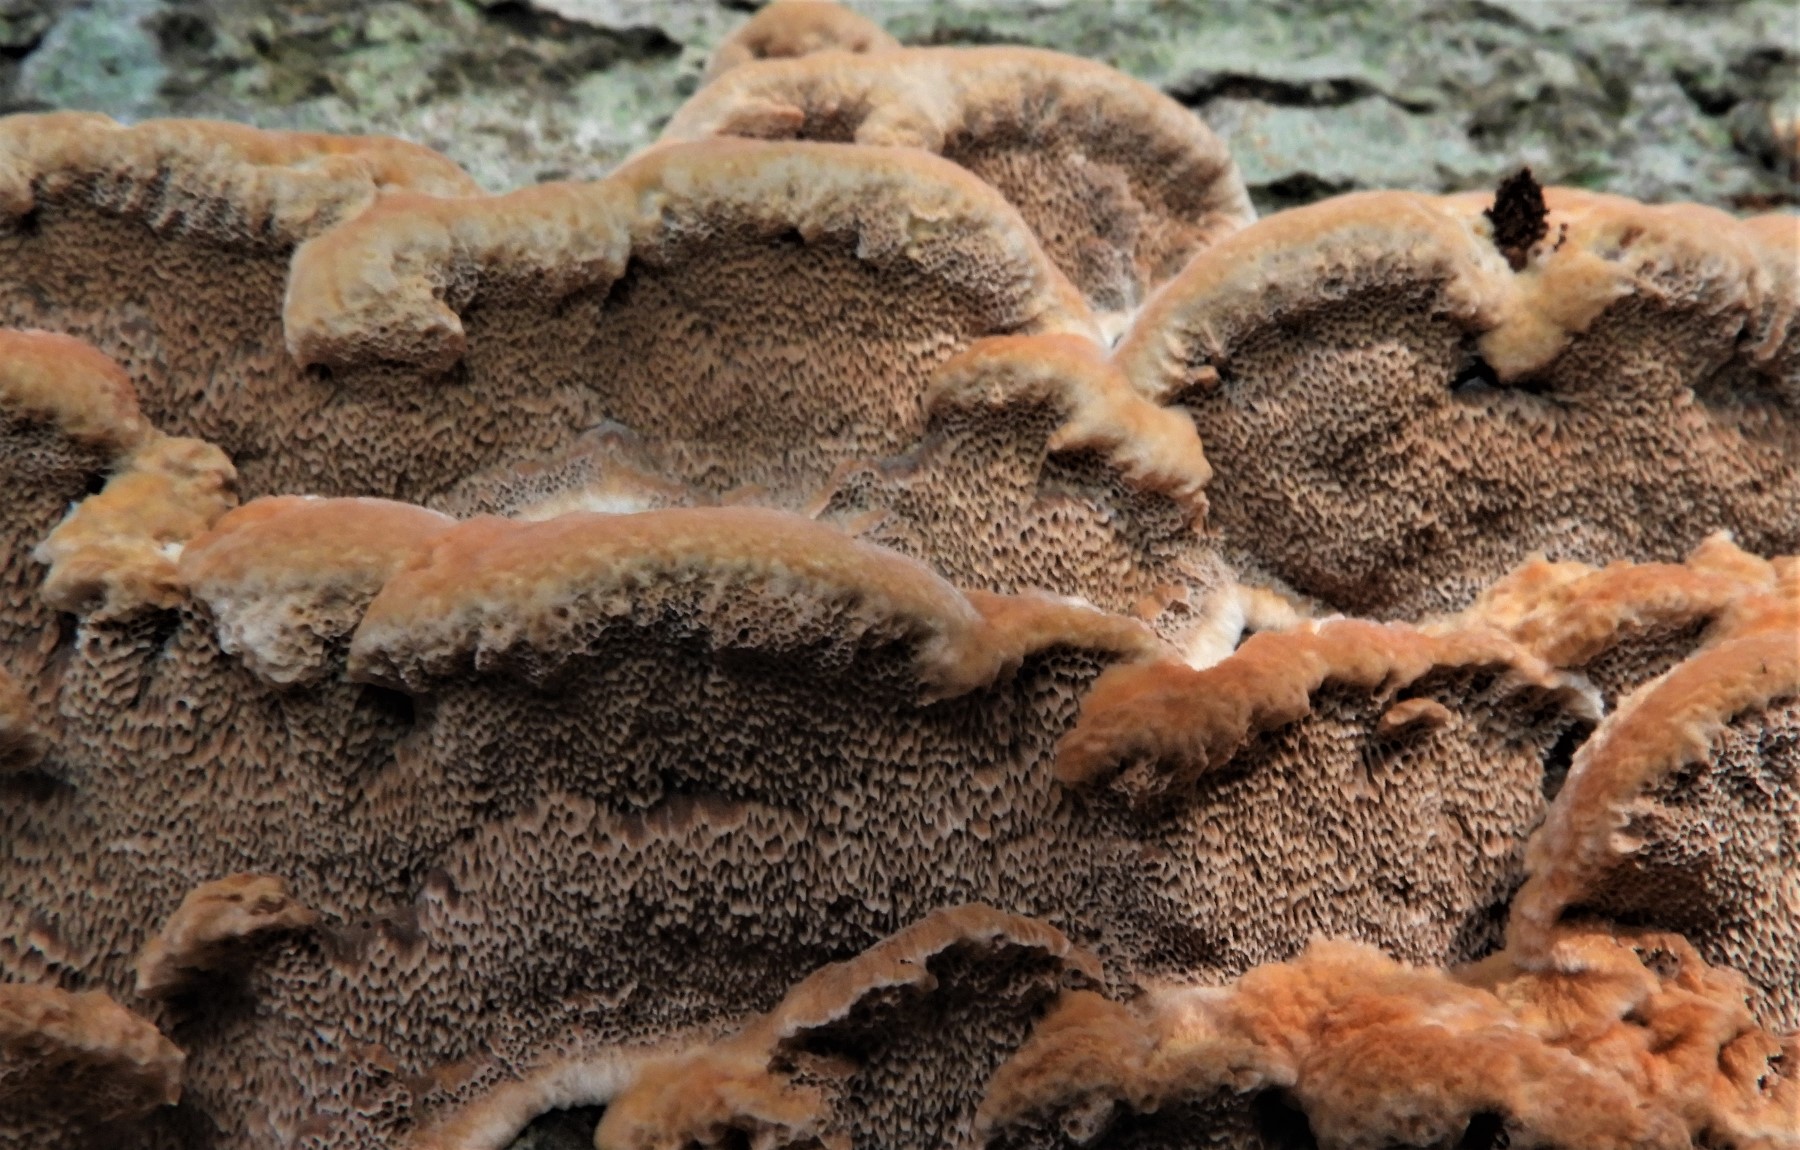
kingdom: Fungi
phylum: Basidiomycota
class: Agaricomycetes
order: Hymenochaetales
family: Hymenochaetaceae
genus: Mensularia
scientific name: Mensularia nodulosa
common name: bøge-spejlporesvamp
